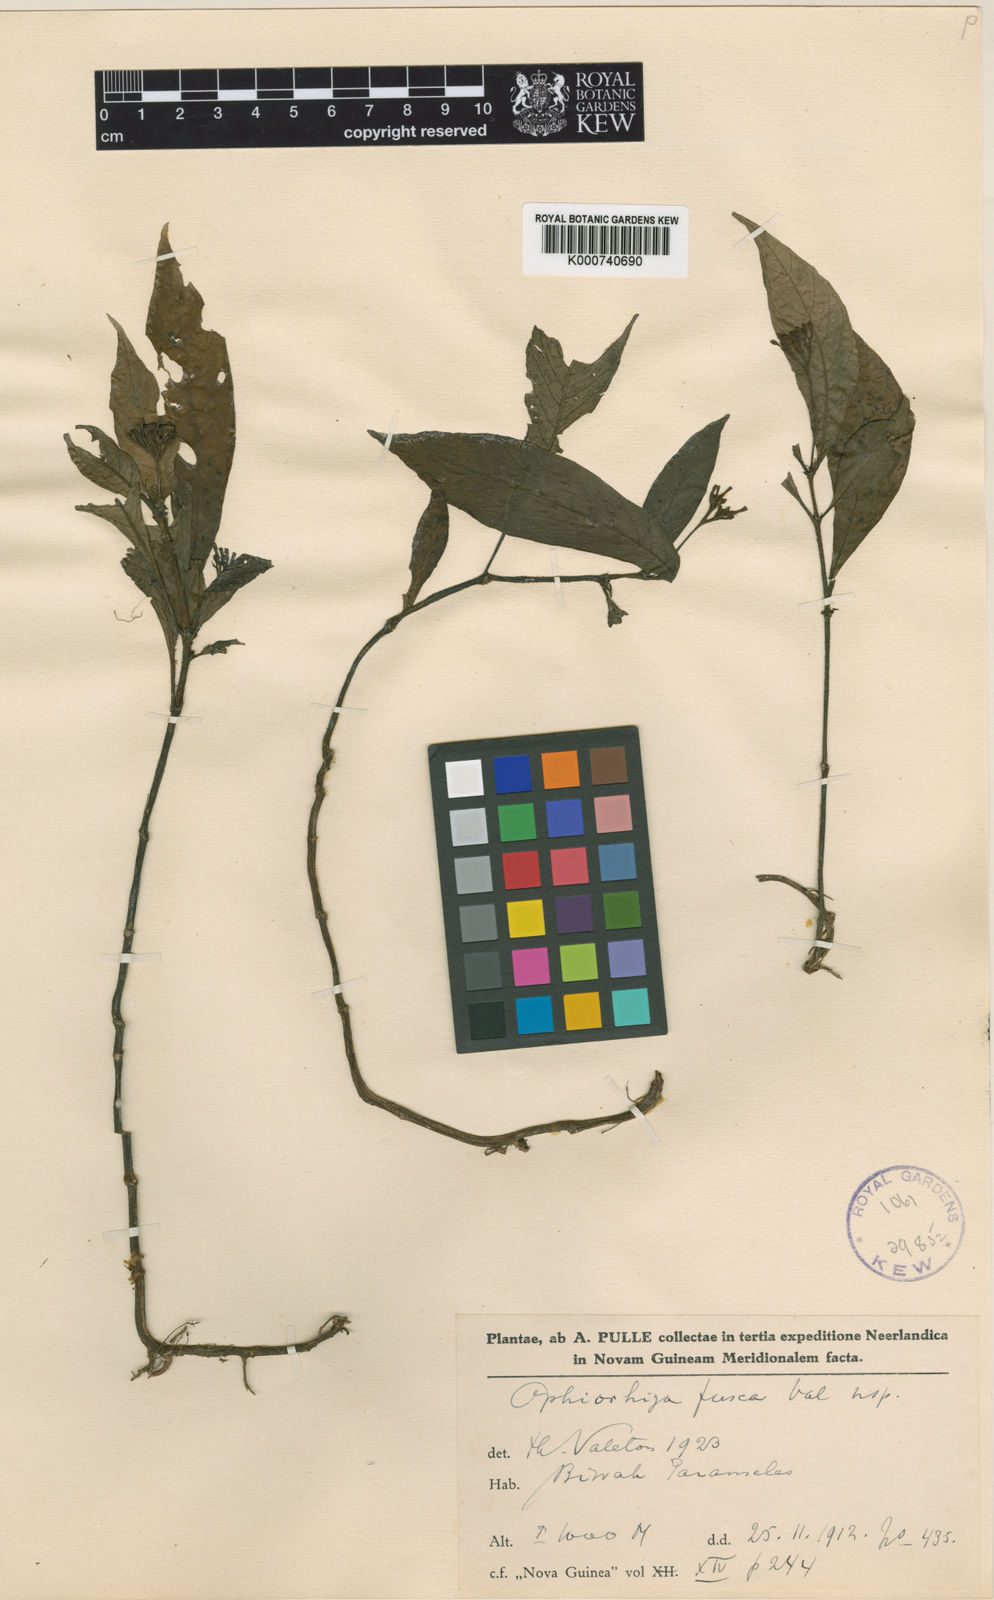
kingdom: Plantae
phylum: Tracheophyta
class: Magnoliopsida
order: Gentianales
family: Rubiaceae
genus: Ophiorrhiza
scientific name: Ophiorrhiza fusca
